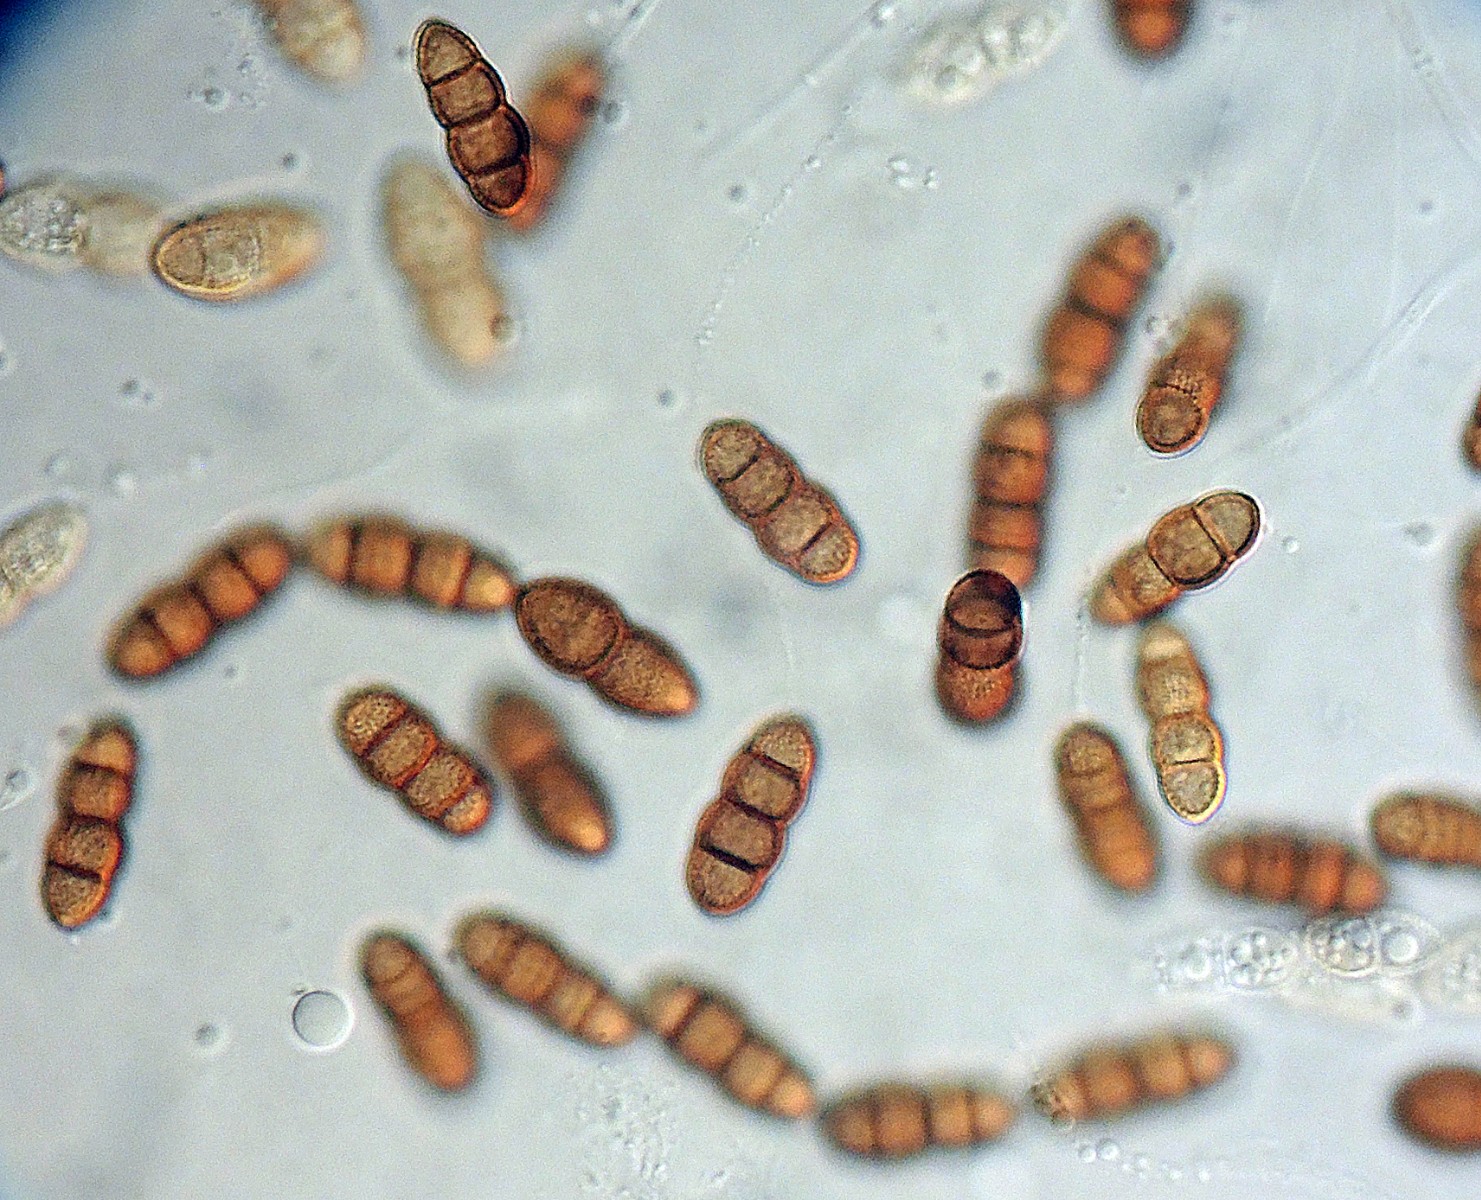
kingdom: Fungi
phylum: Ascomycota
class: Dothideomycetes
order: Pleosporales
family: Thyridariaceae
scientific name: Thyridariaceae
